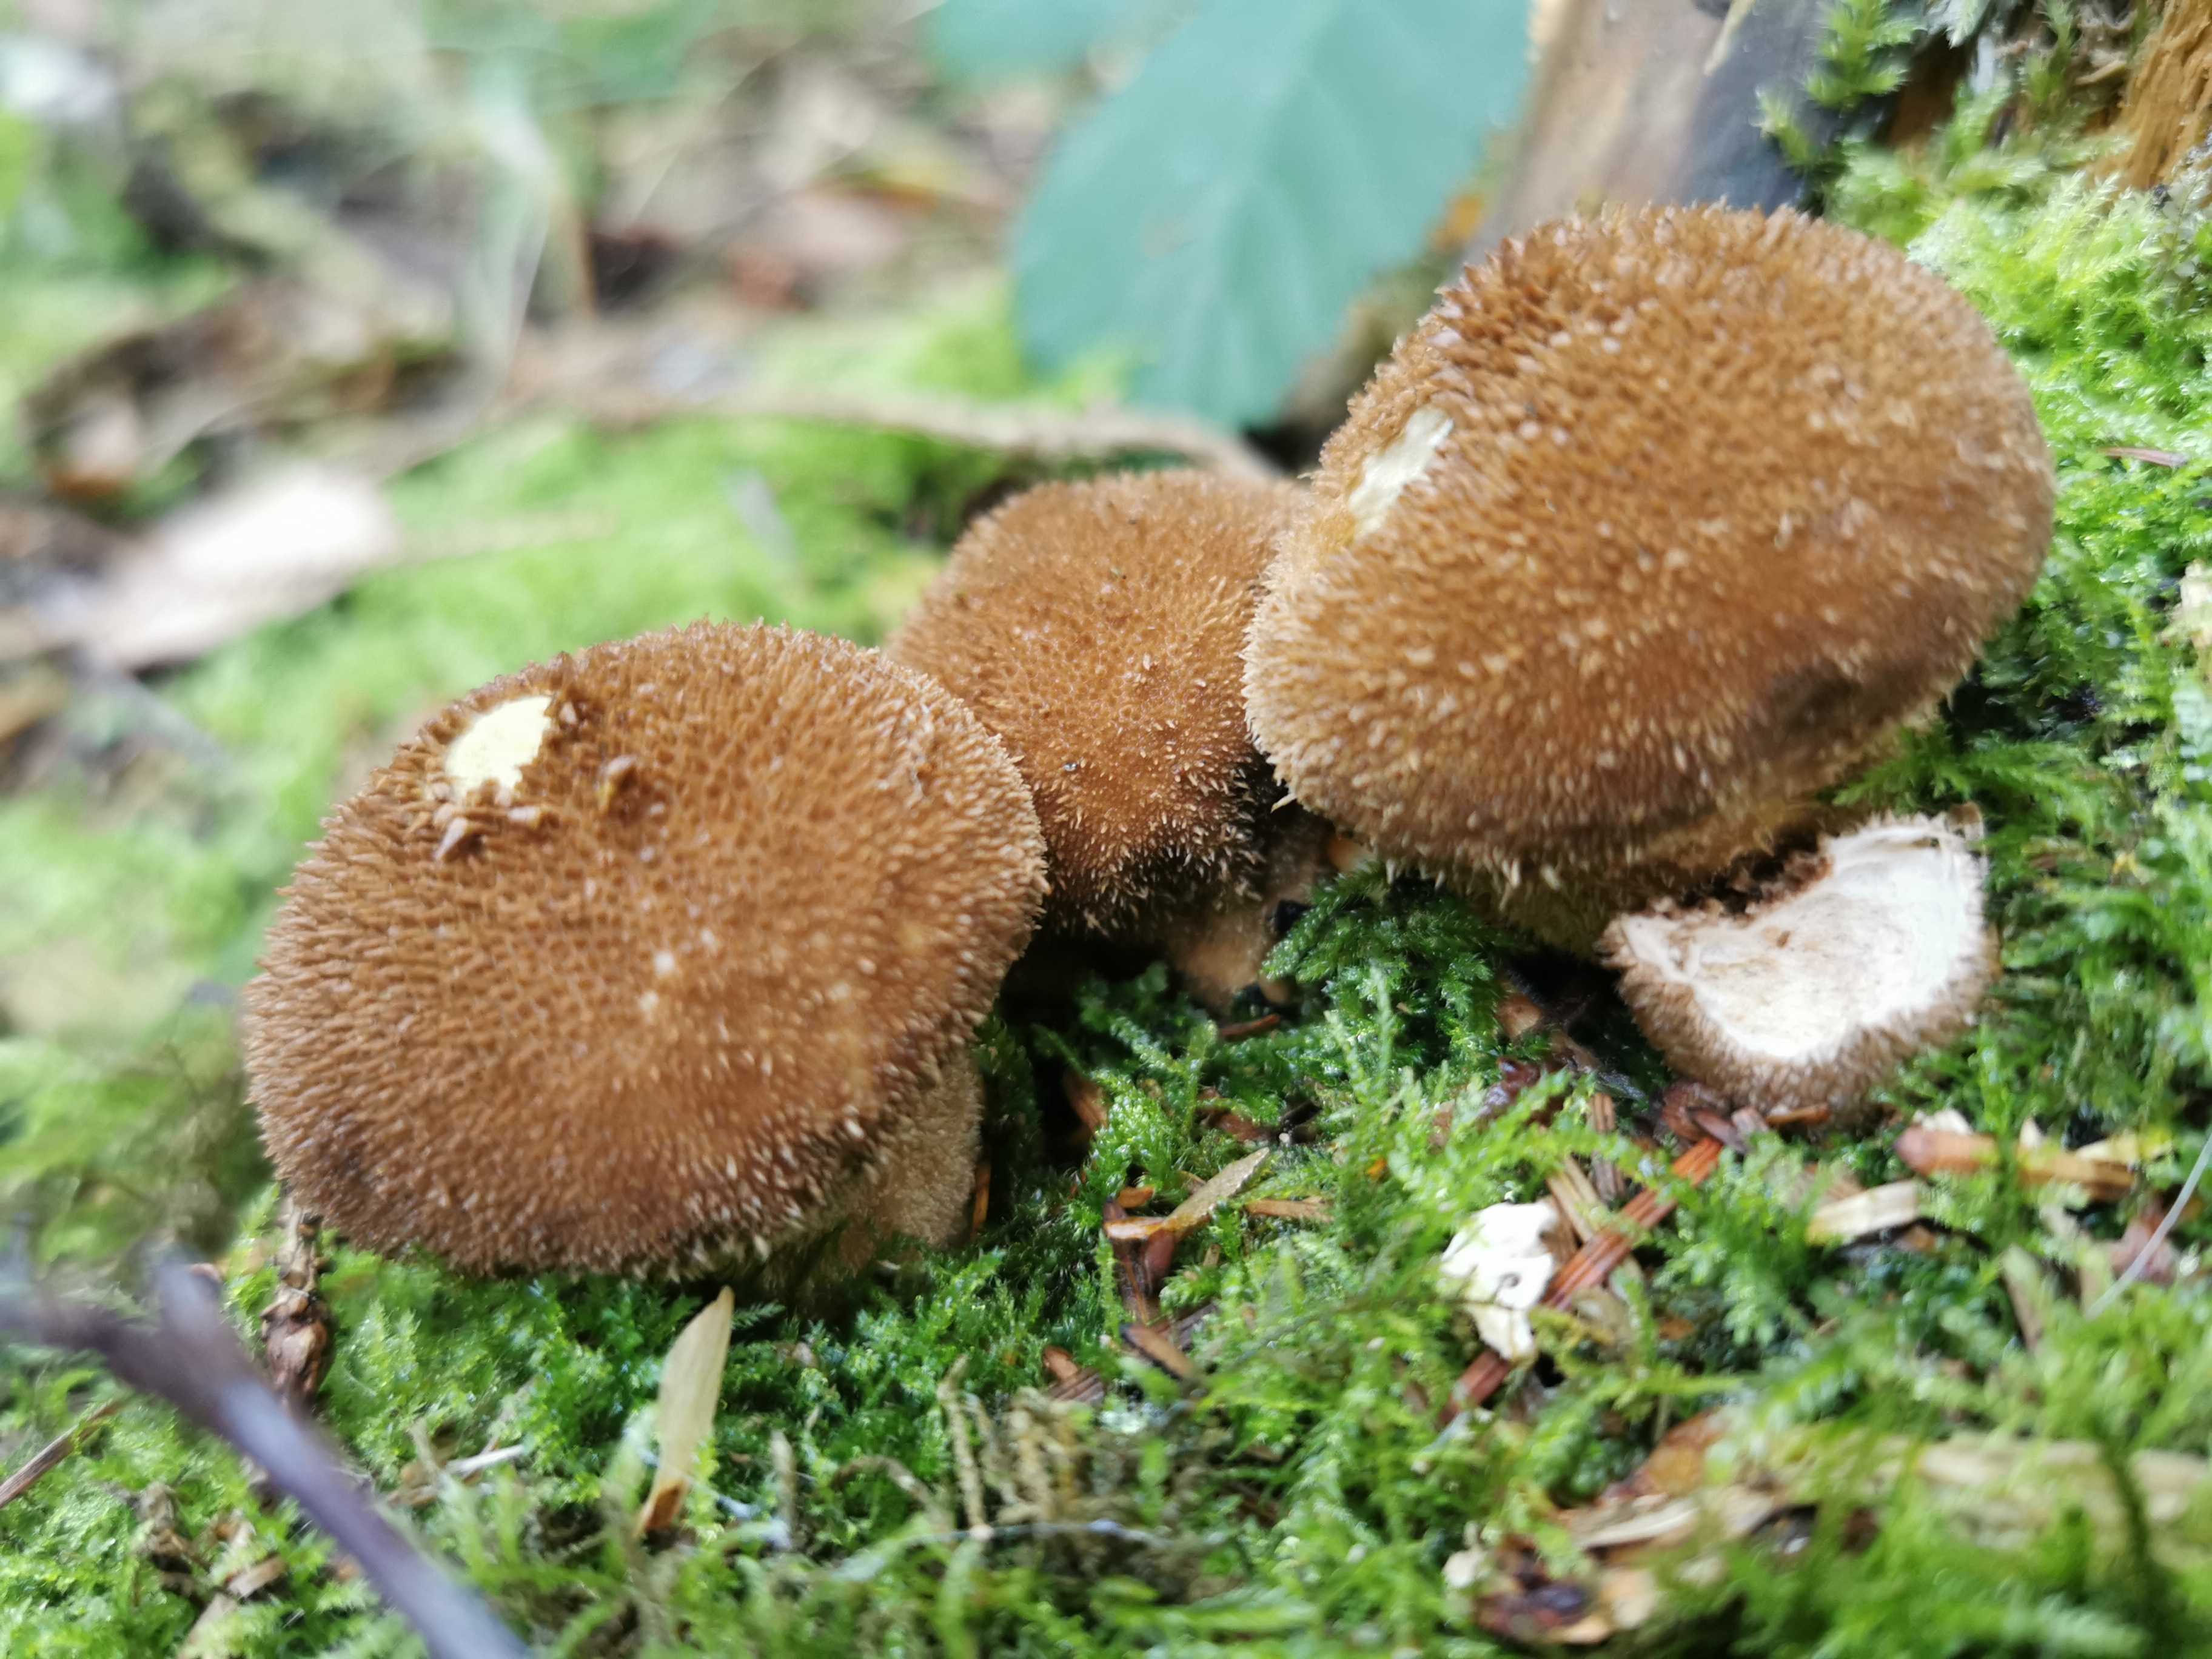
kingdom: Fungi
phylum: Basidiomycota
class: Agaricomycetes
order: Agaricales
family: Lycoperdaceae
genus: Lycoperdon
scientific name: Lycoperdon perlatum
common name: krystal-støvbold
